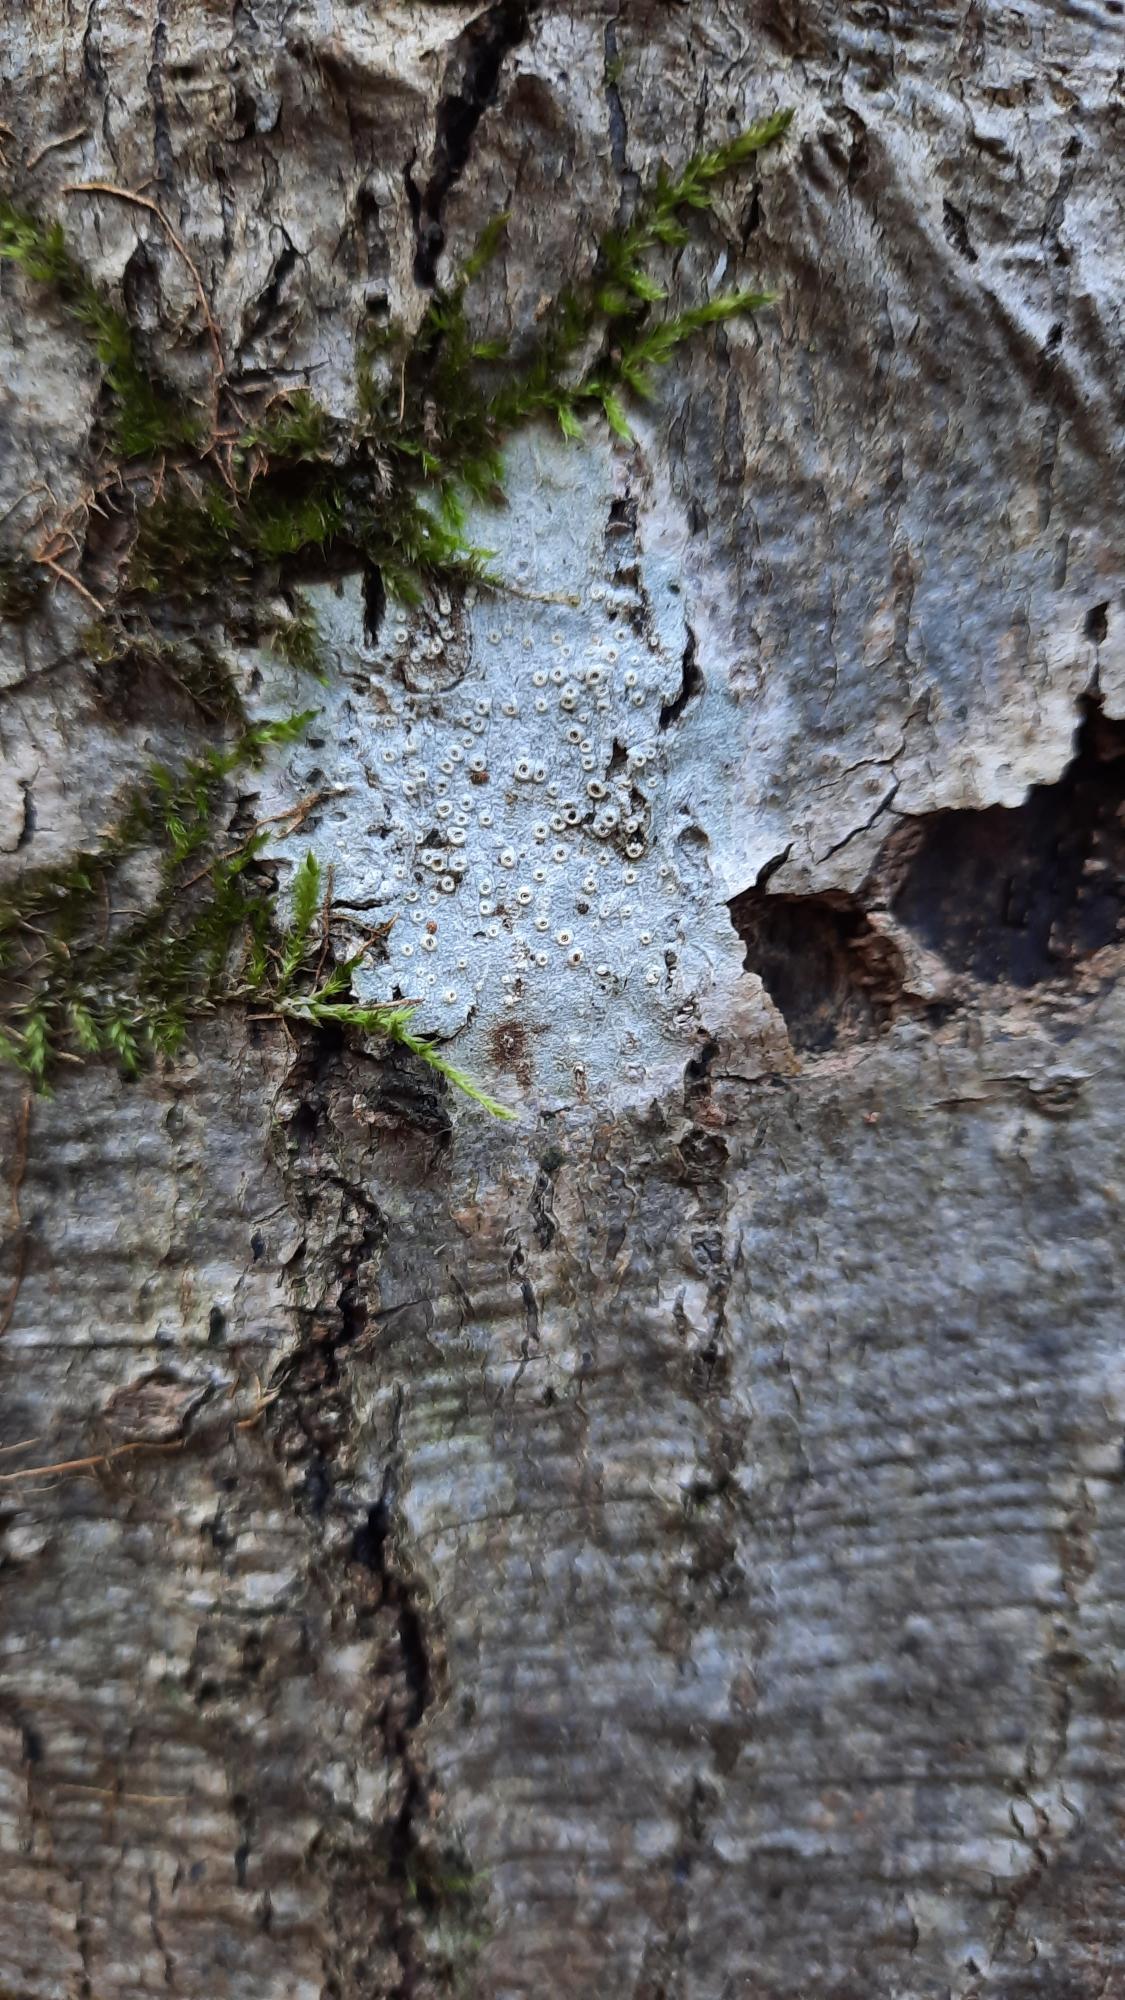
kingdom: Fungi
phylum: Ascomycota
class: Lecanoromycetes
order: Ostropales
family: Graphidaceae
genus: Thelotrema
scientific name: Thelotrema lepadinum
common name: Almindelig slørkantlav
